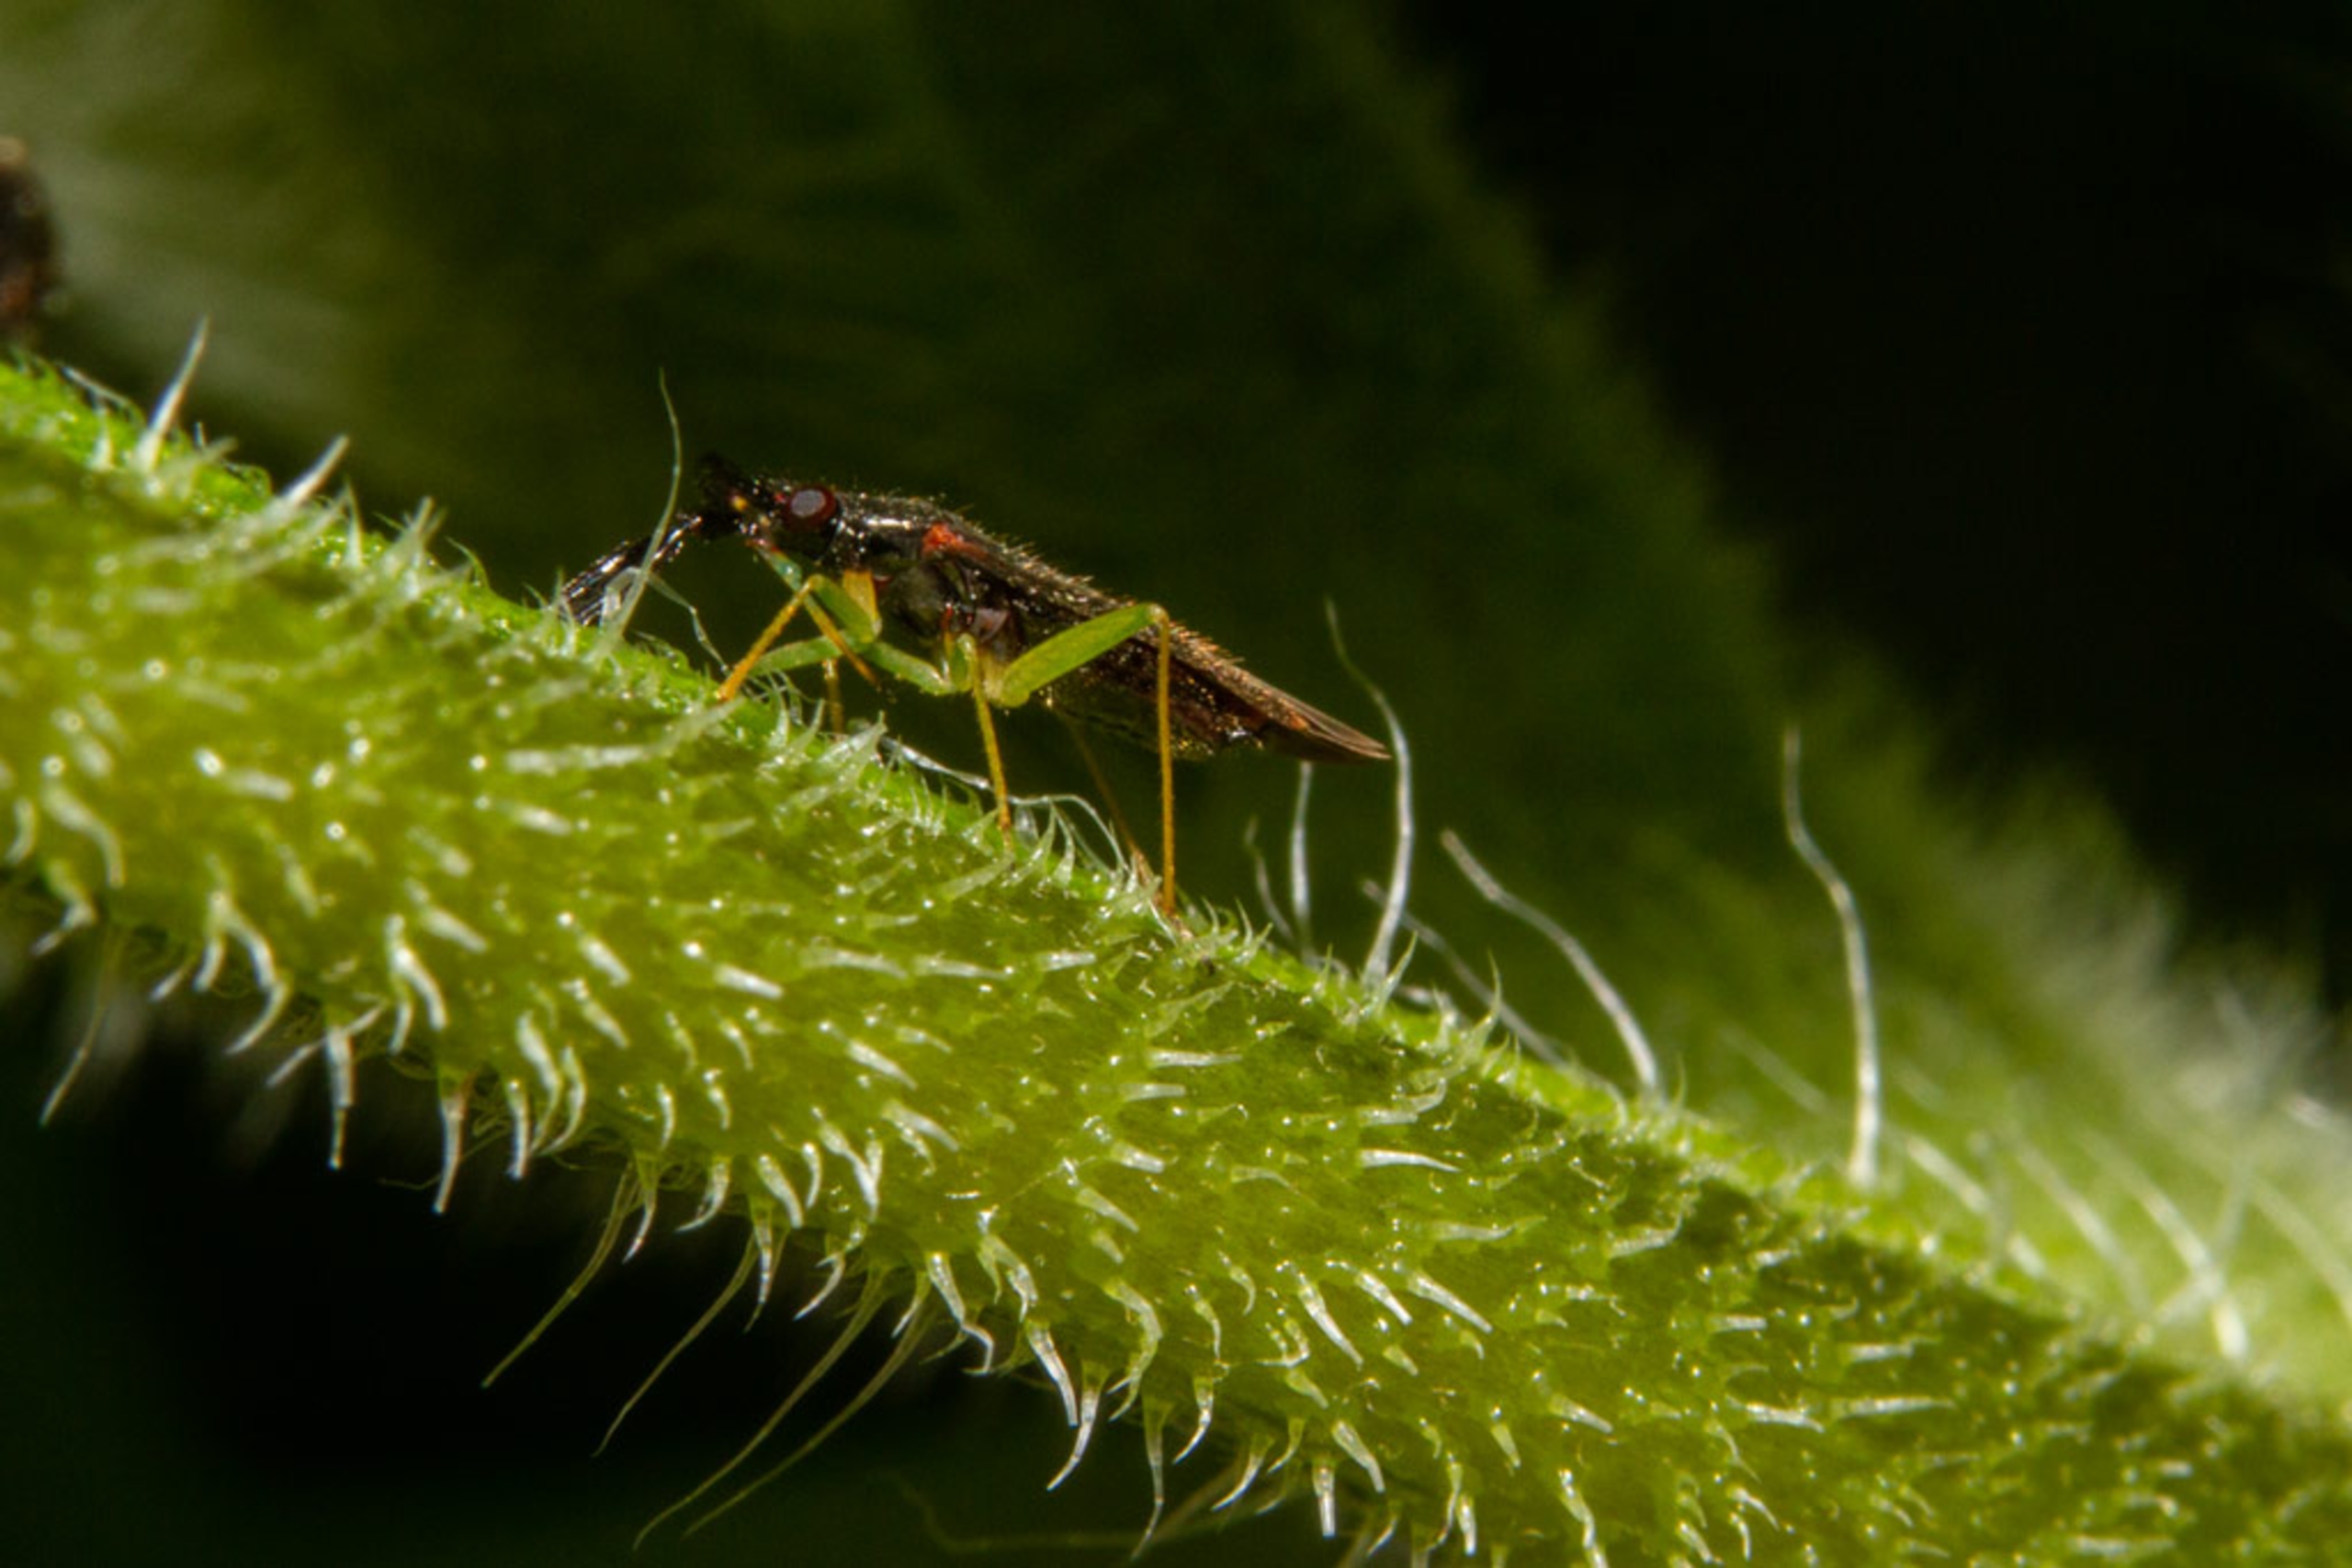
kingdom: Animalia
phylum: Arthropoda
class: Insecta
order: Hemiptera
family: Miridae
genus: Heterotoma
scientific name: Heterotoma planicornis
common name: Køllehornet blomstertæge
